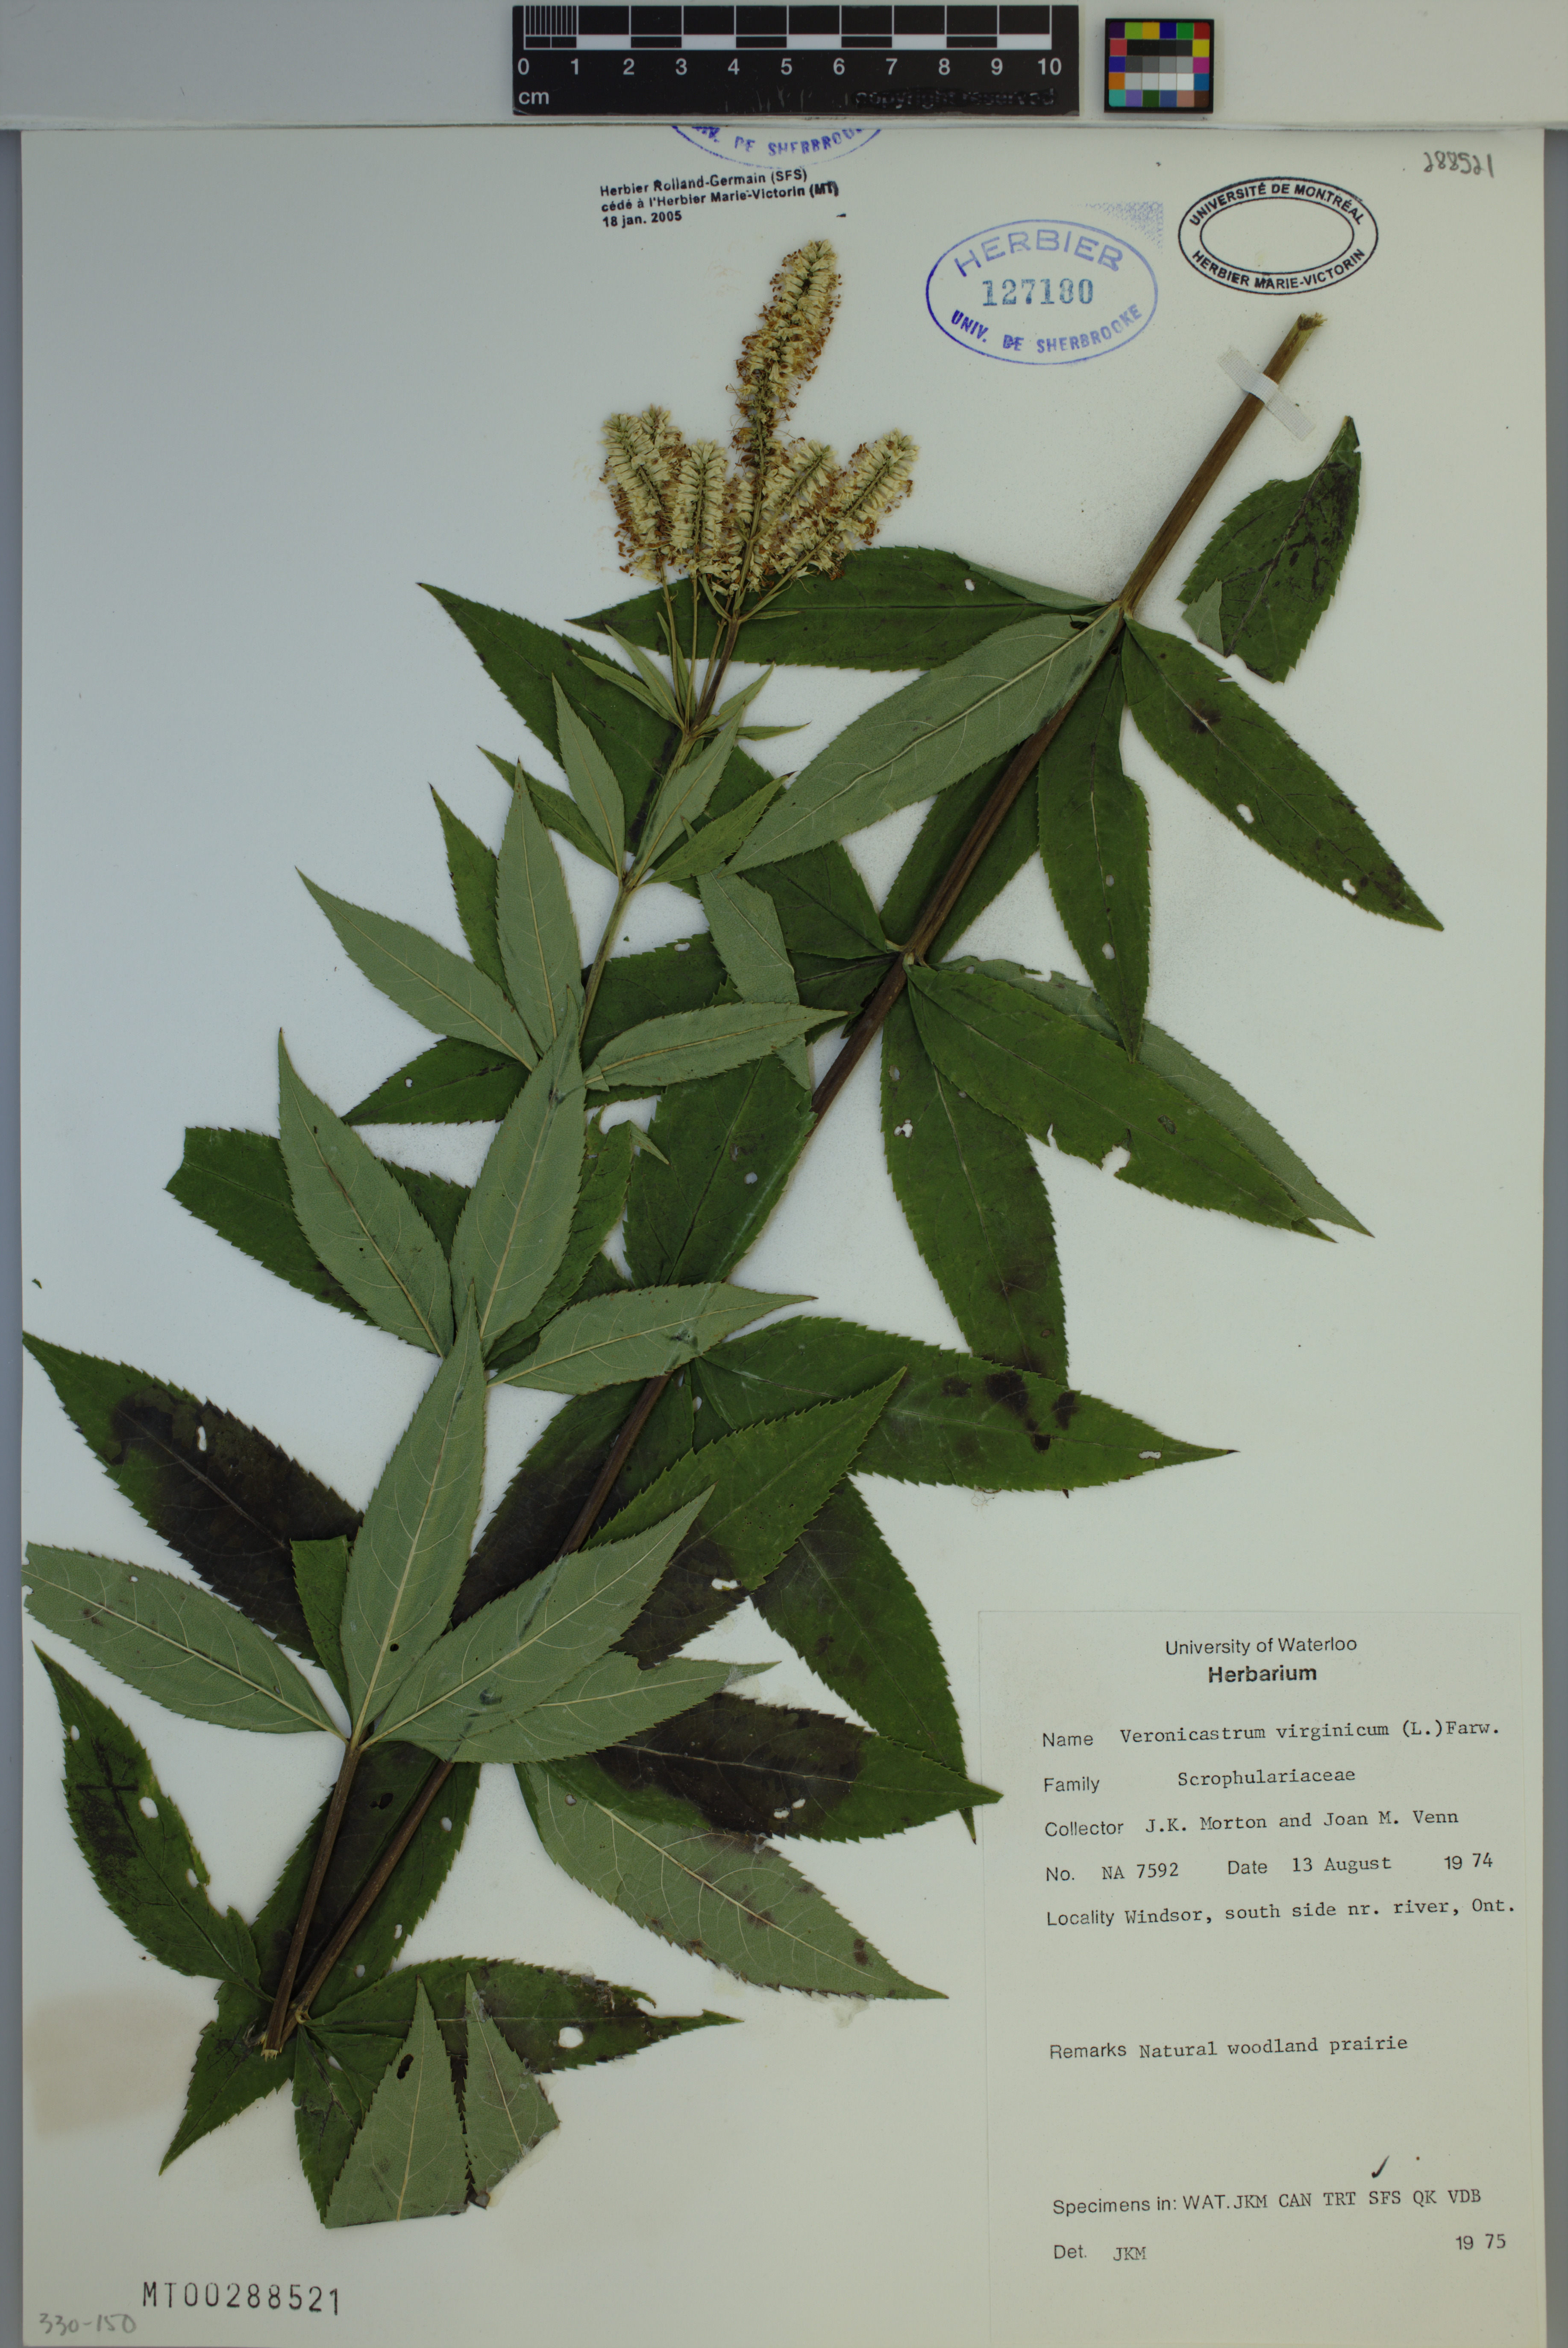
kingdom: Plantae
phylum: Tracheophyta
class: Magnoliopsida
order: Lamiales
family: Plantaginaceae
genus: Veronicastrum
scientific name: Veronicastrum virginicum
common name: Blackroot
